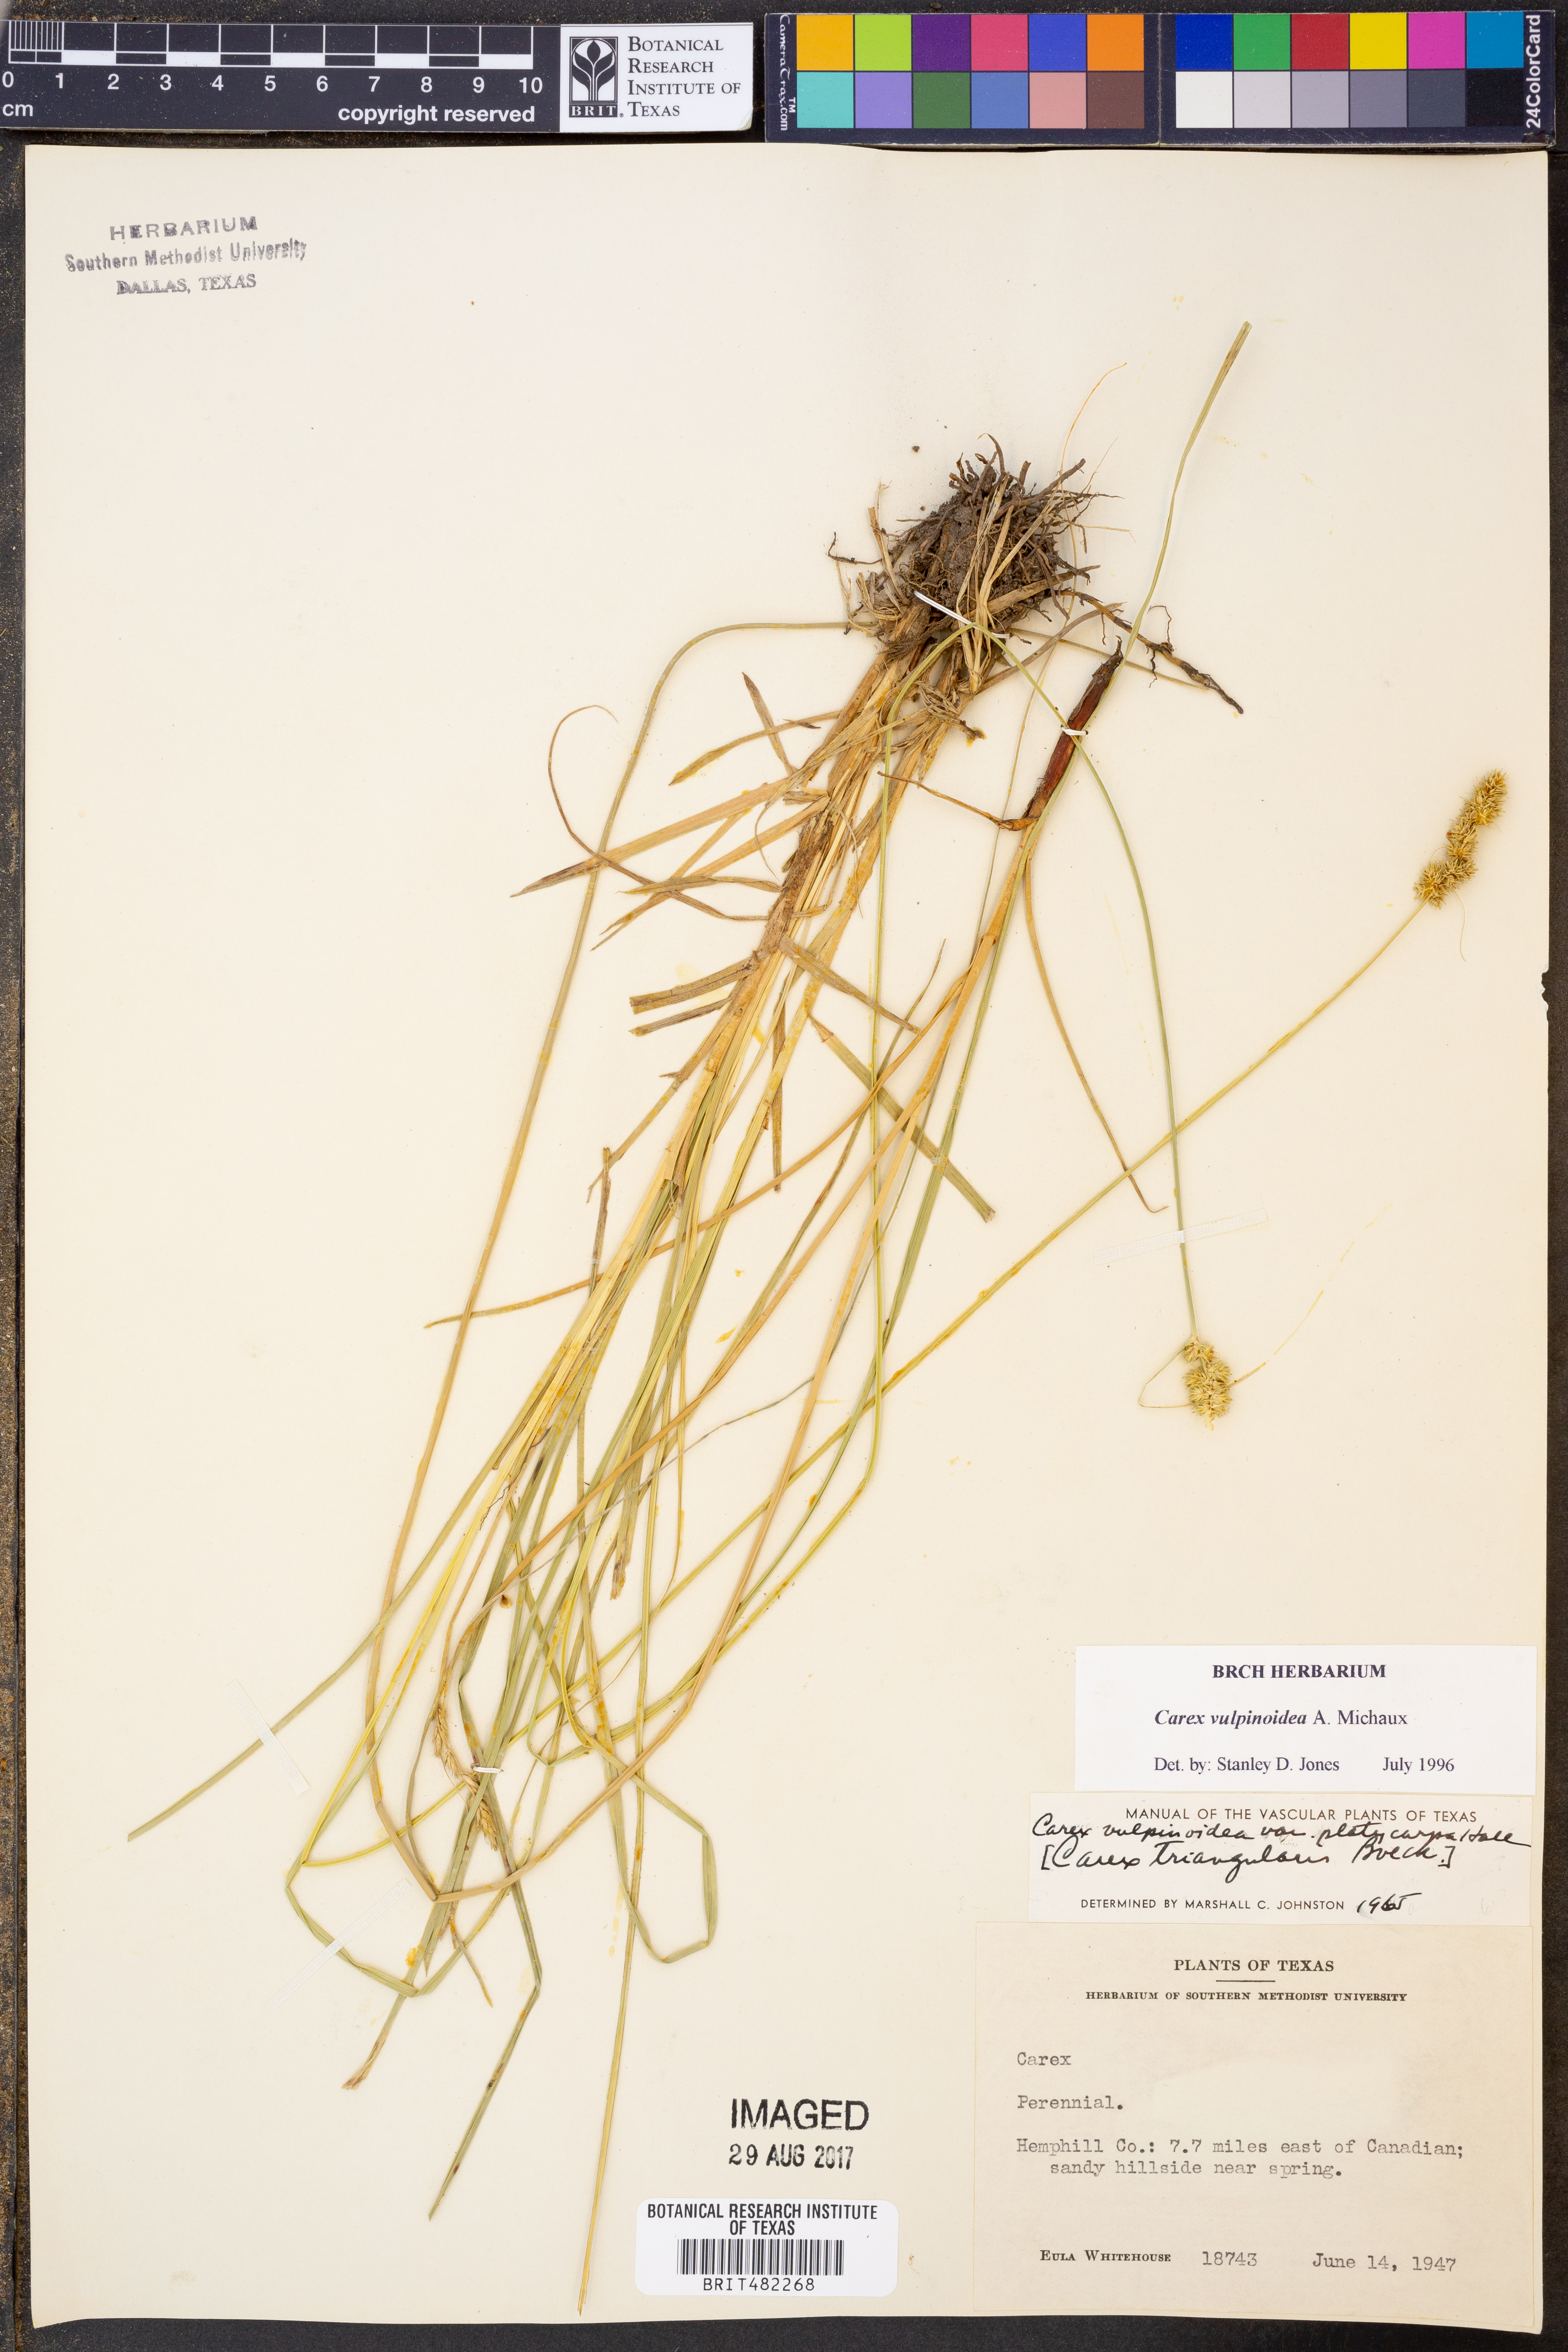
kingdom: Plantae
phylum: Tracheophyta
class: Liliopsida
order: Poales
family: Cyperaceae
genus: Carex
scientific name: Carex vulpinoidea
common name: American fox-sedge
